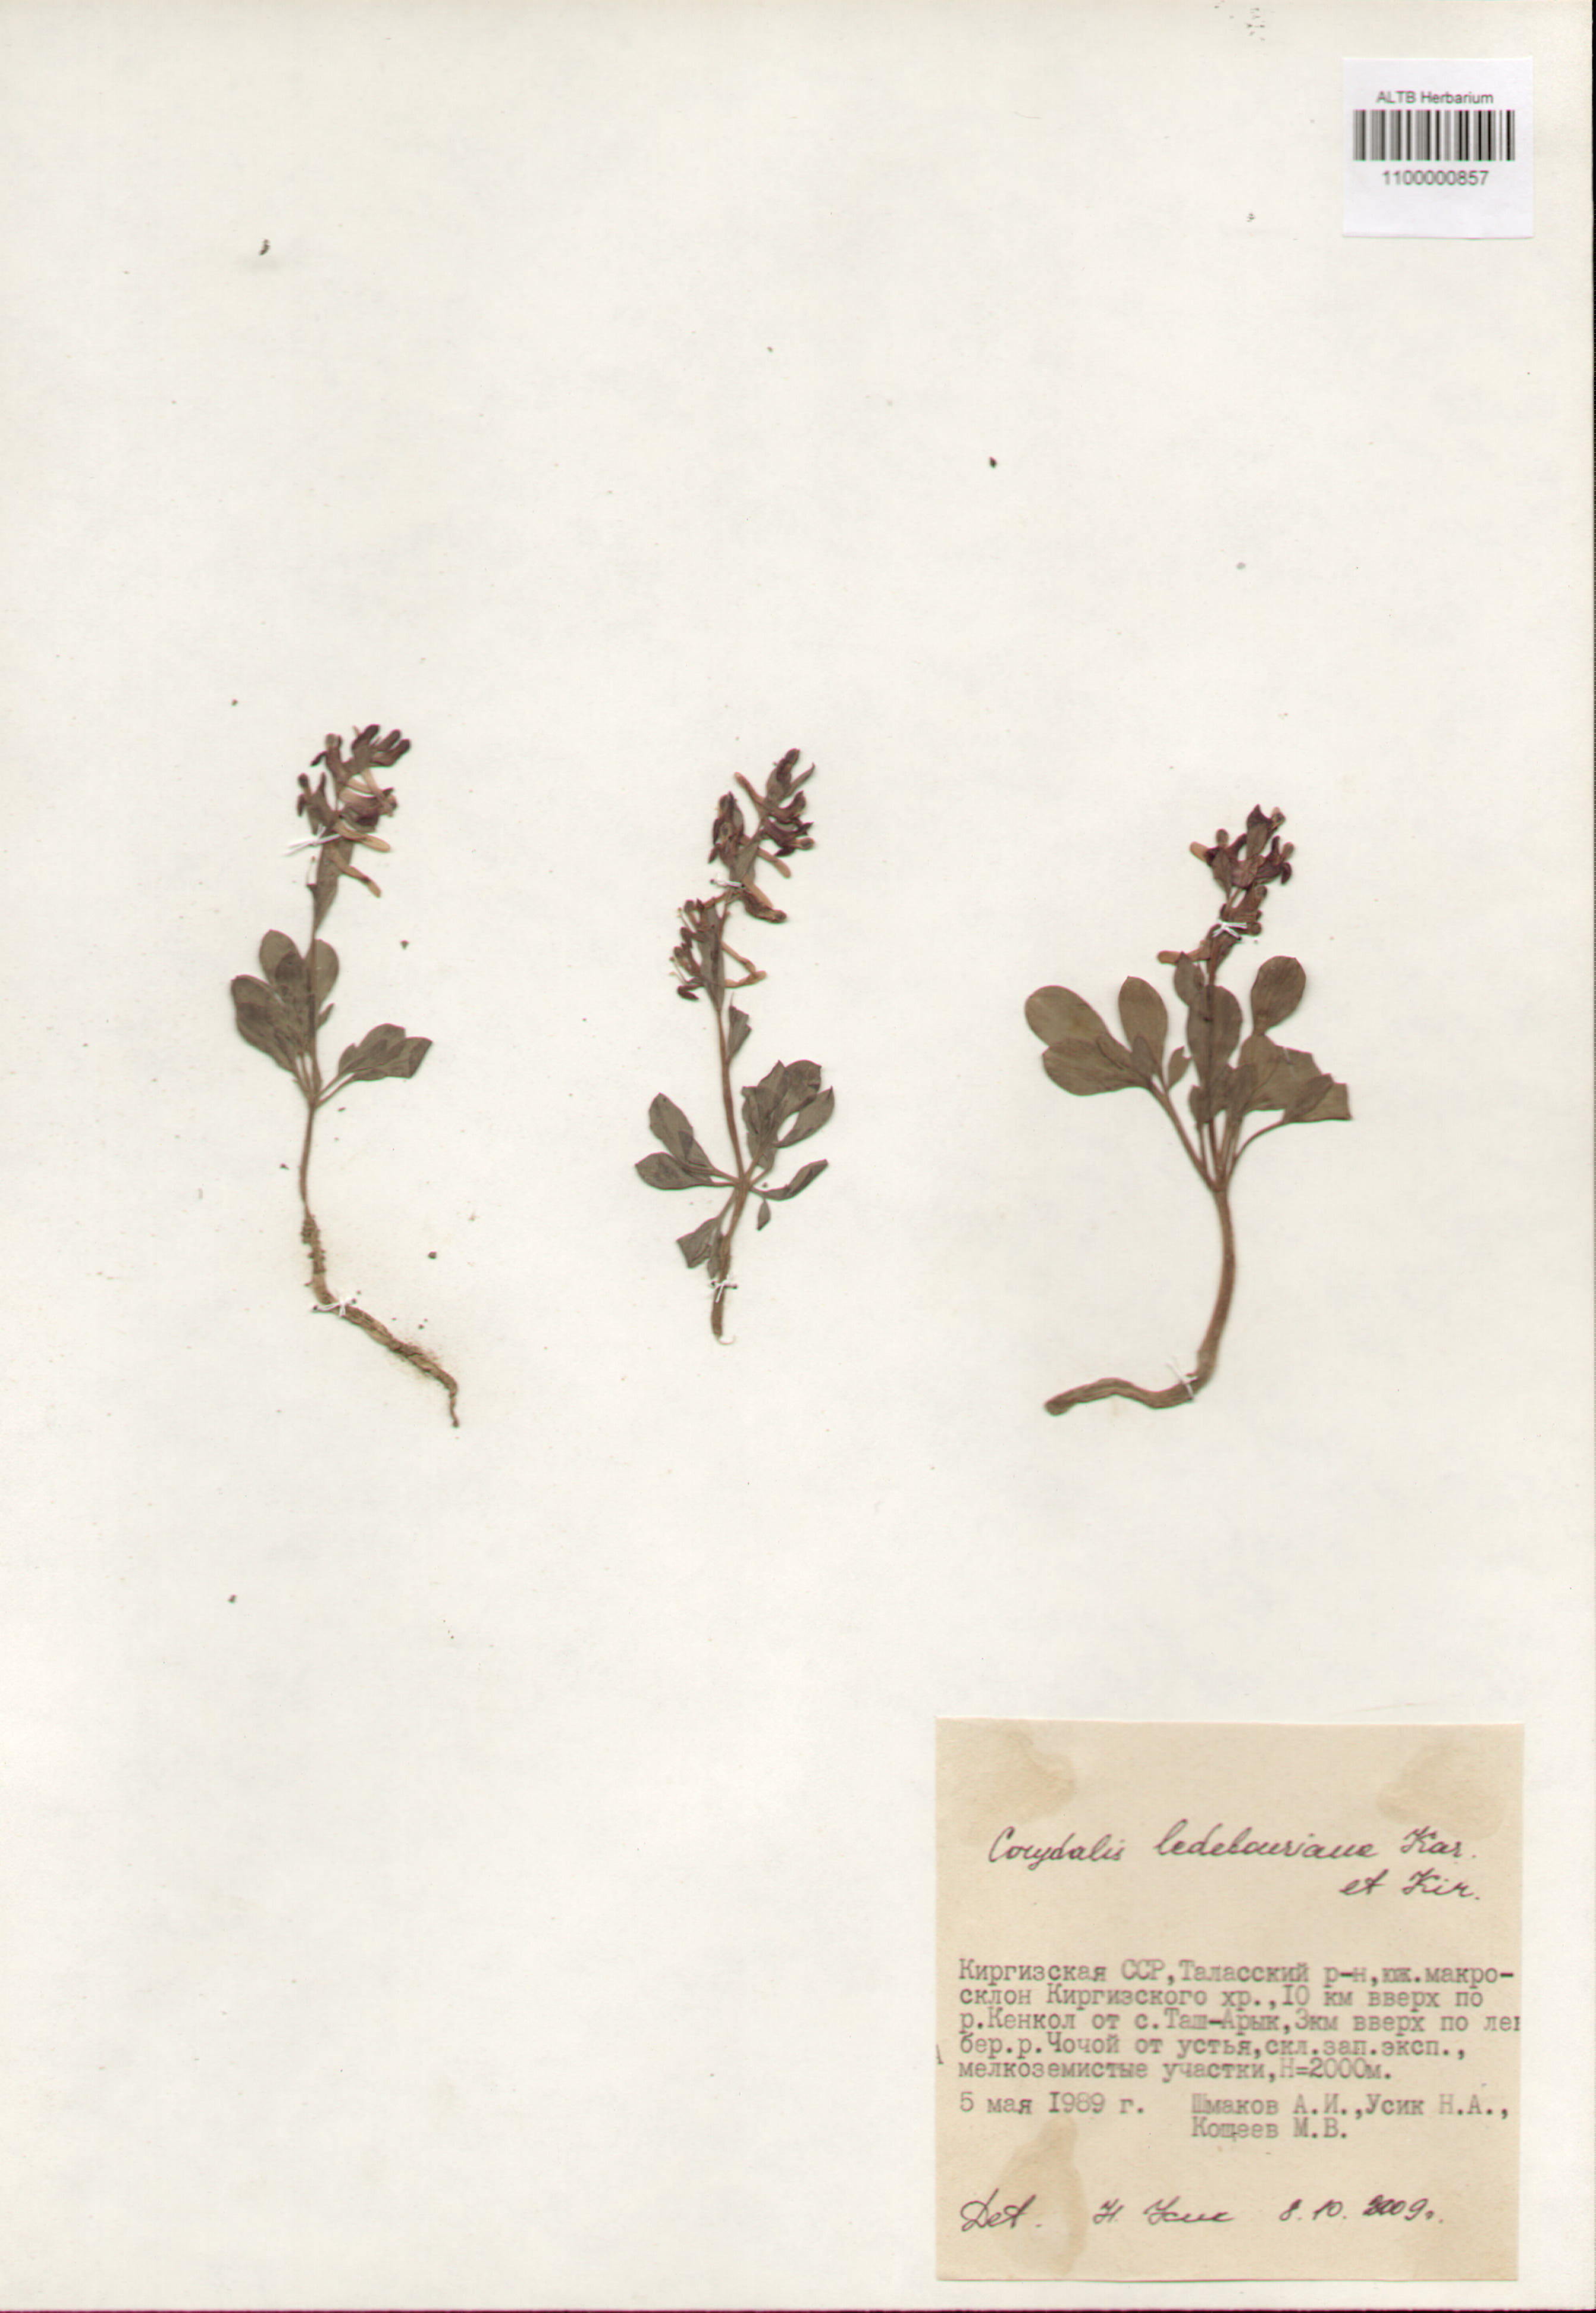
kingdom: Plantae
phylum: Tracheophyta
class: Magnoliopsida
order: Ranunculales
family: Papaveraceae
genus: Corydalis
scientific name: Corydalis ledebouriana
